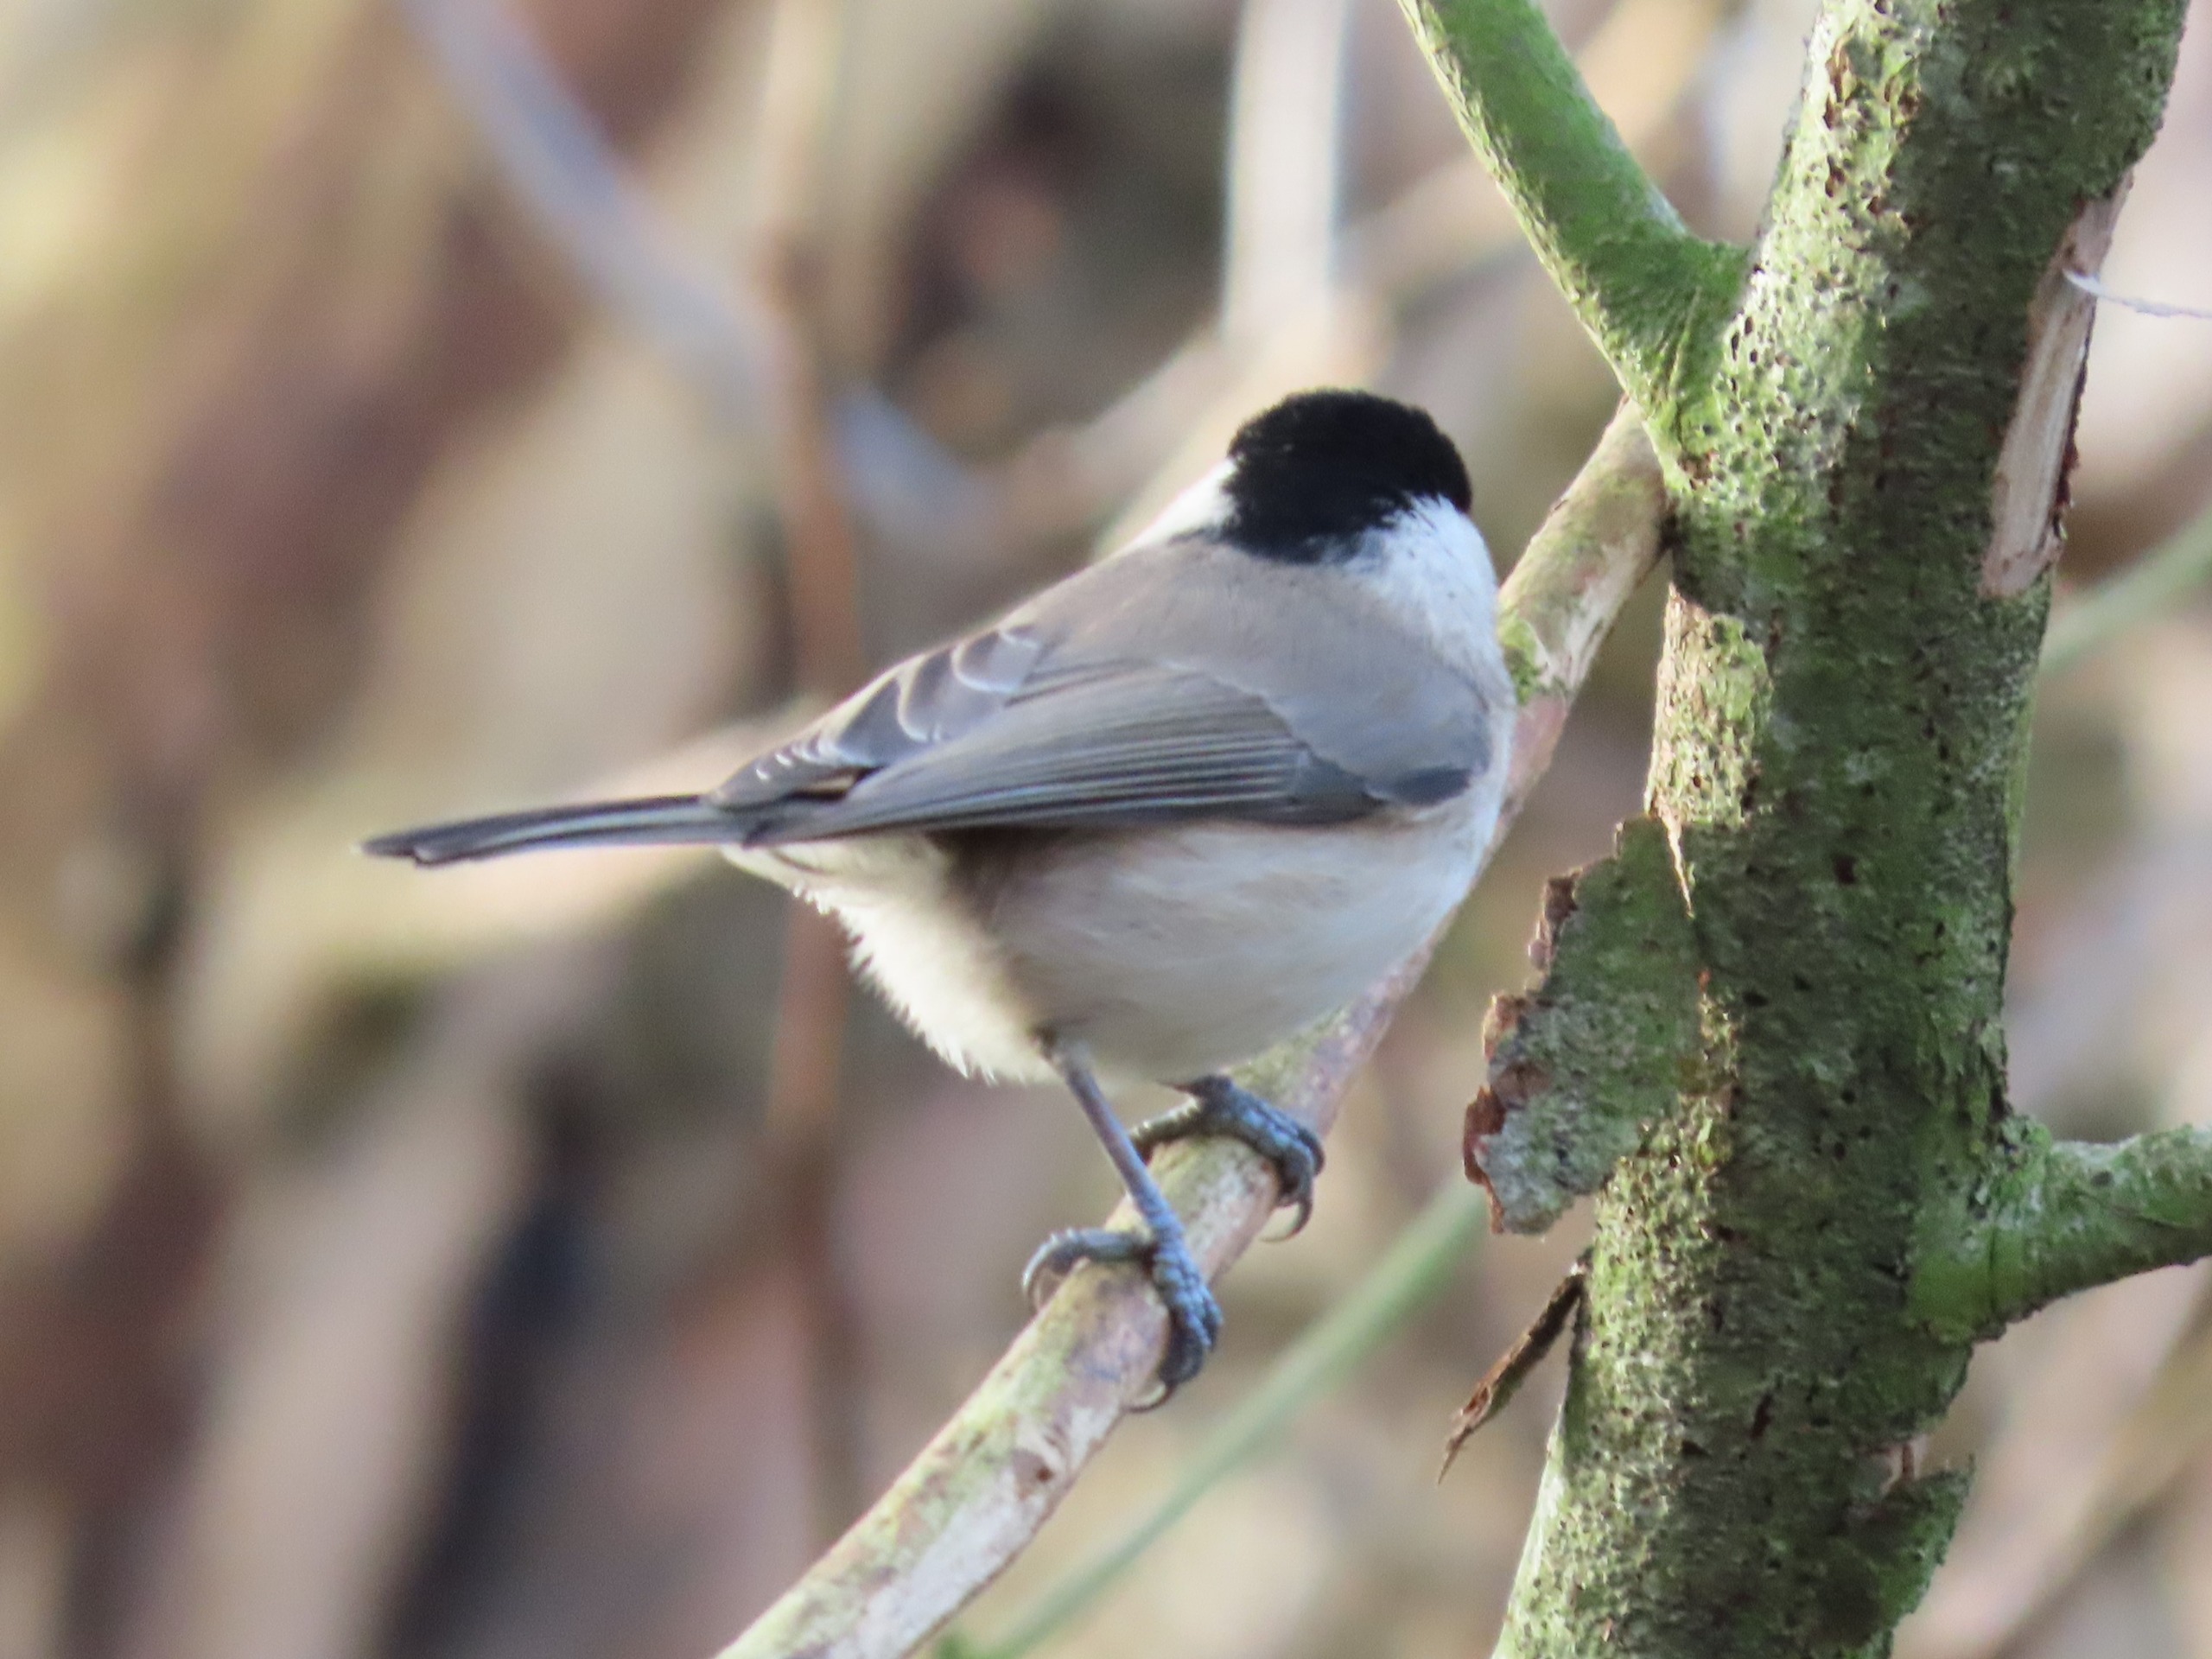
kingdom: Animalia
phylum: Chordata
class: Aves
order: Passeriformes
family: Paridae
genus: Poecile
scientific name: Poecile palustris
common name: Sumpmejse
